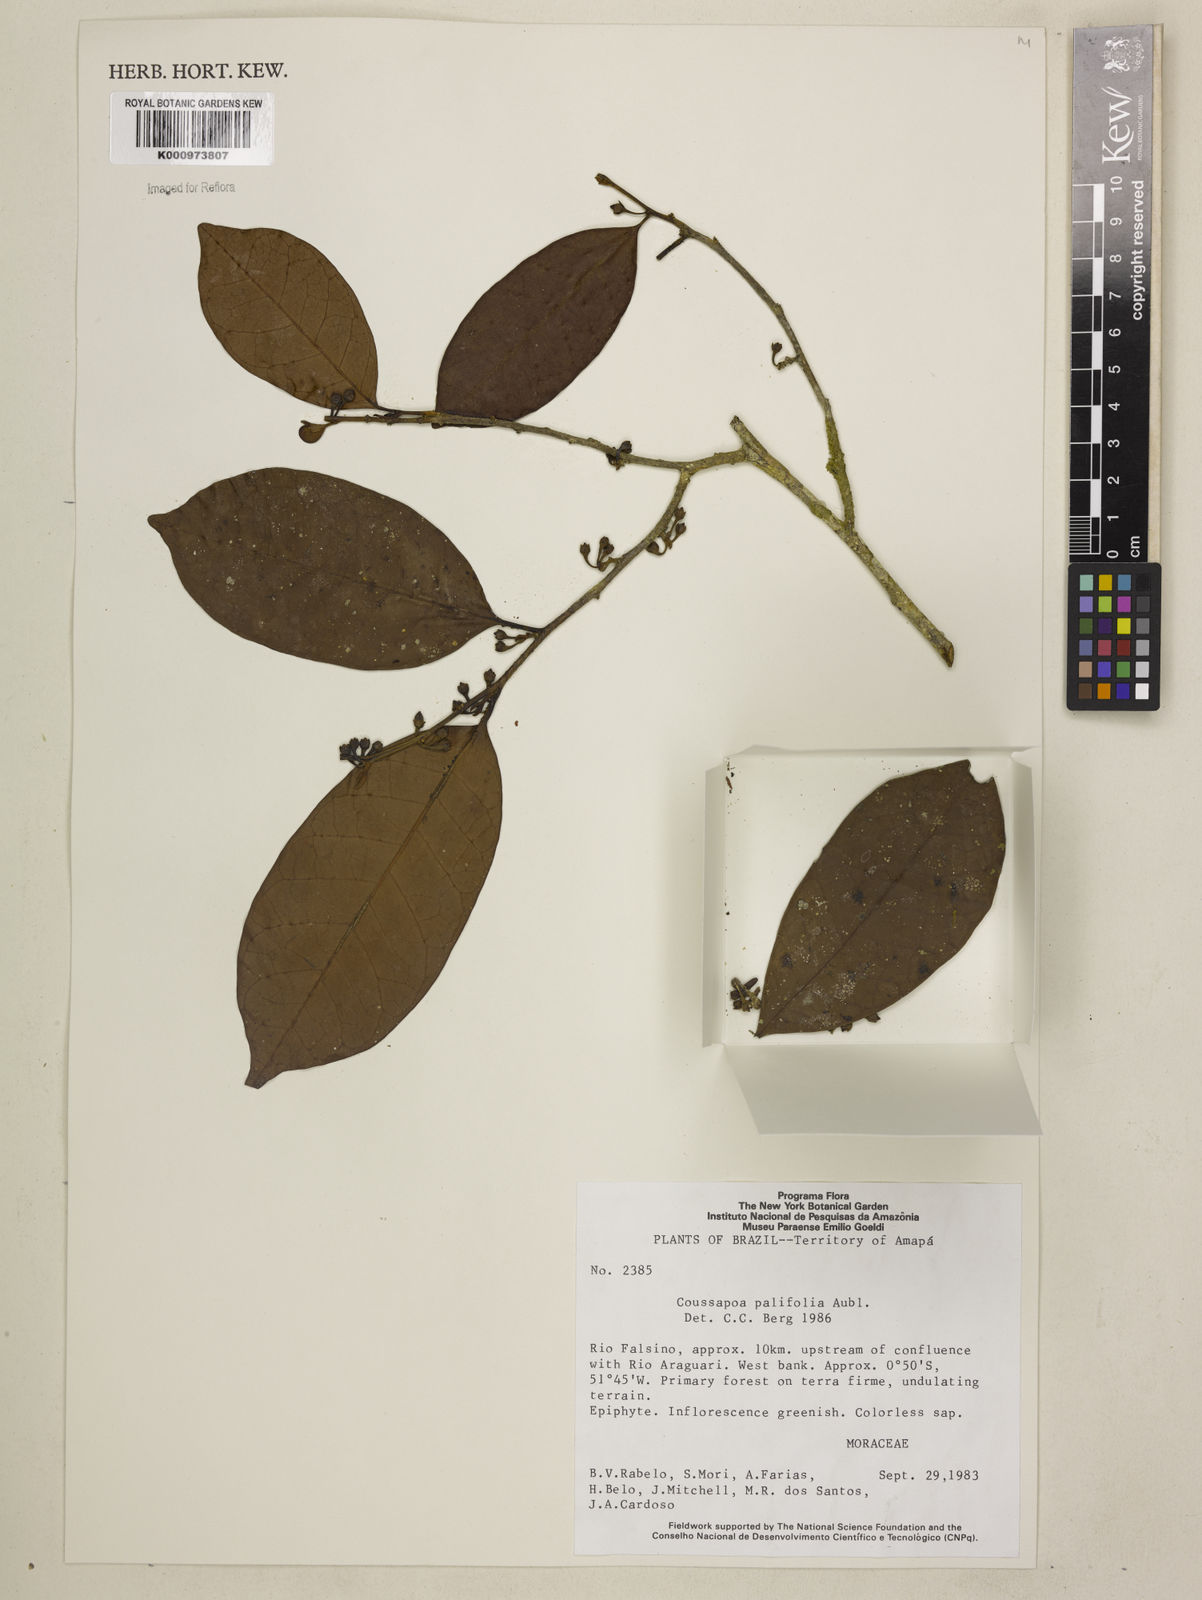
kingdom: Plantae
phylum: Tracheophyta
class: Magnoliopsida
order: Rosales
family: Urticaceae
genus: Coussapoa
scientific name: Coussapoa parvifolia
